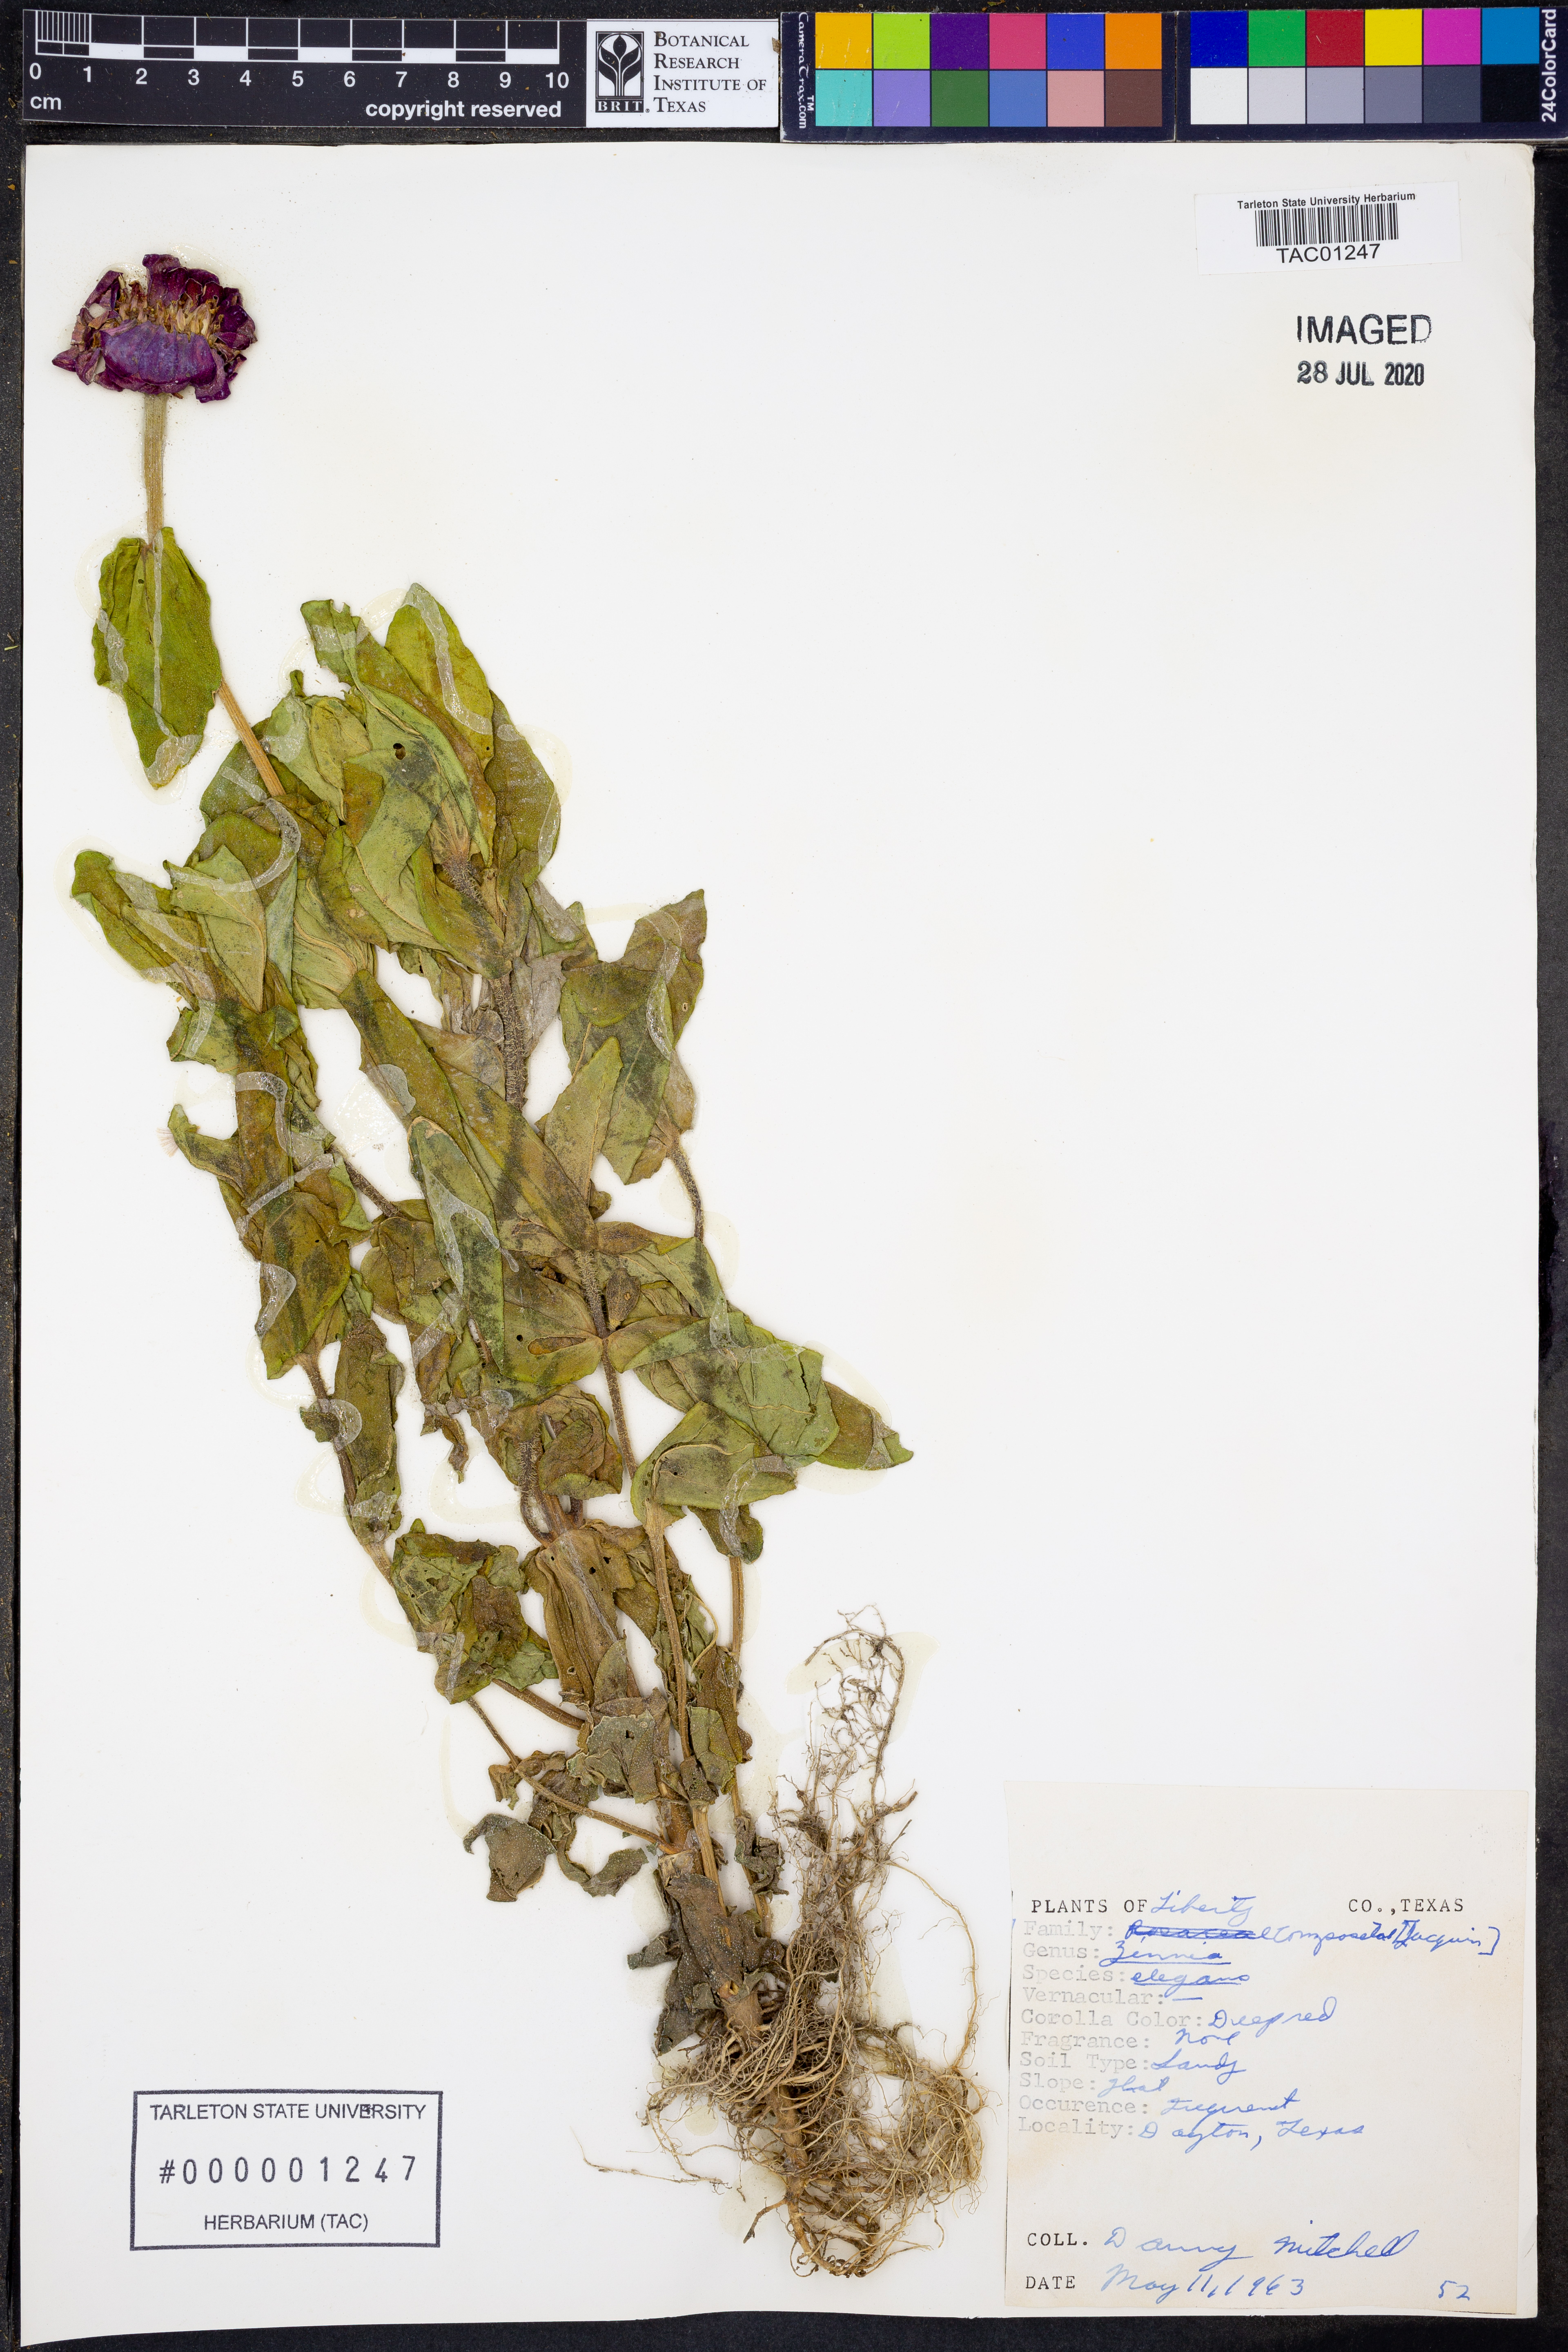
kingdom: Plantae
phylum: Tracheophyta
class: Magnoliopsida
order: Asterales
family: Asteraceae
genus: Zinnia
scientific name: Zinnia elegans
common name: Youth-and-age
